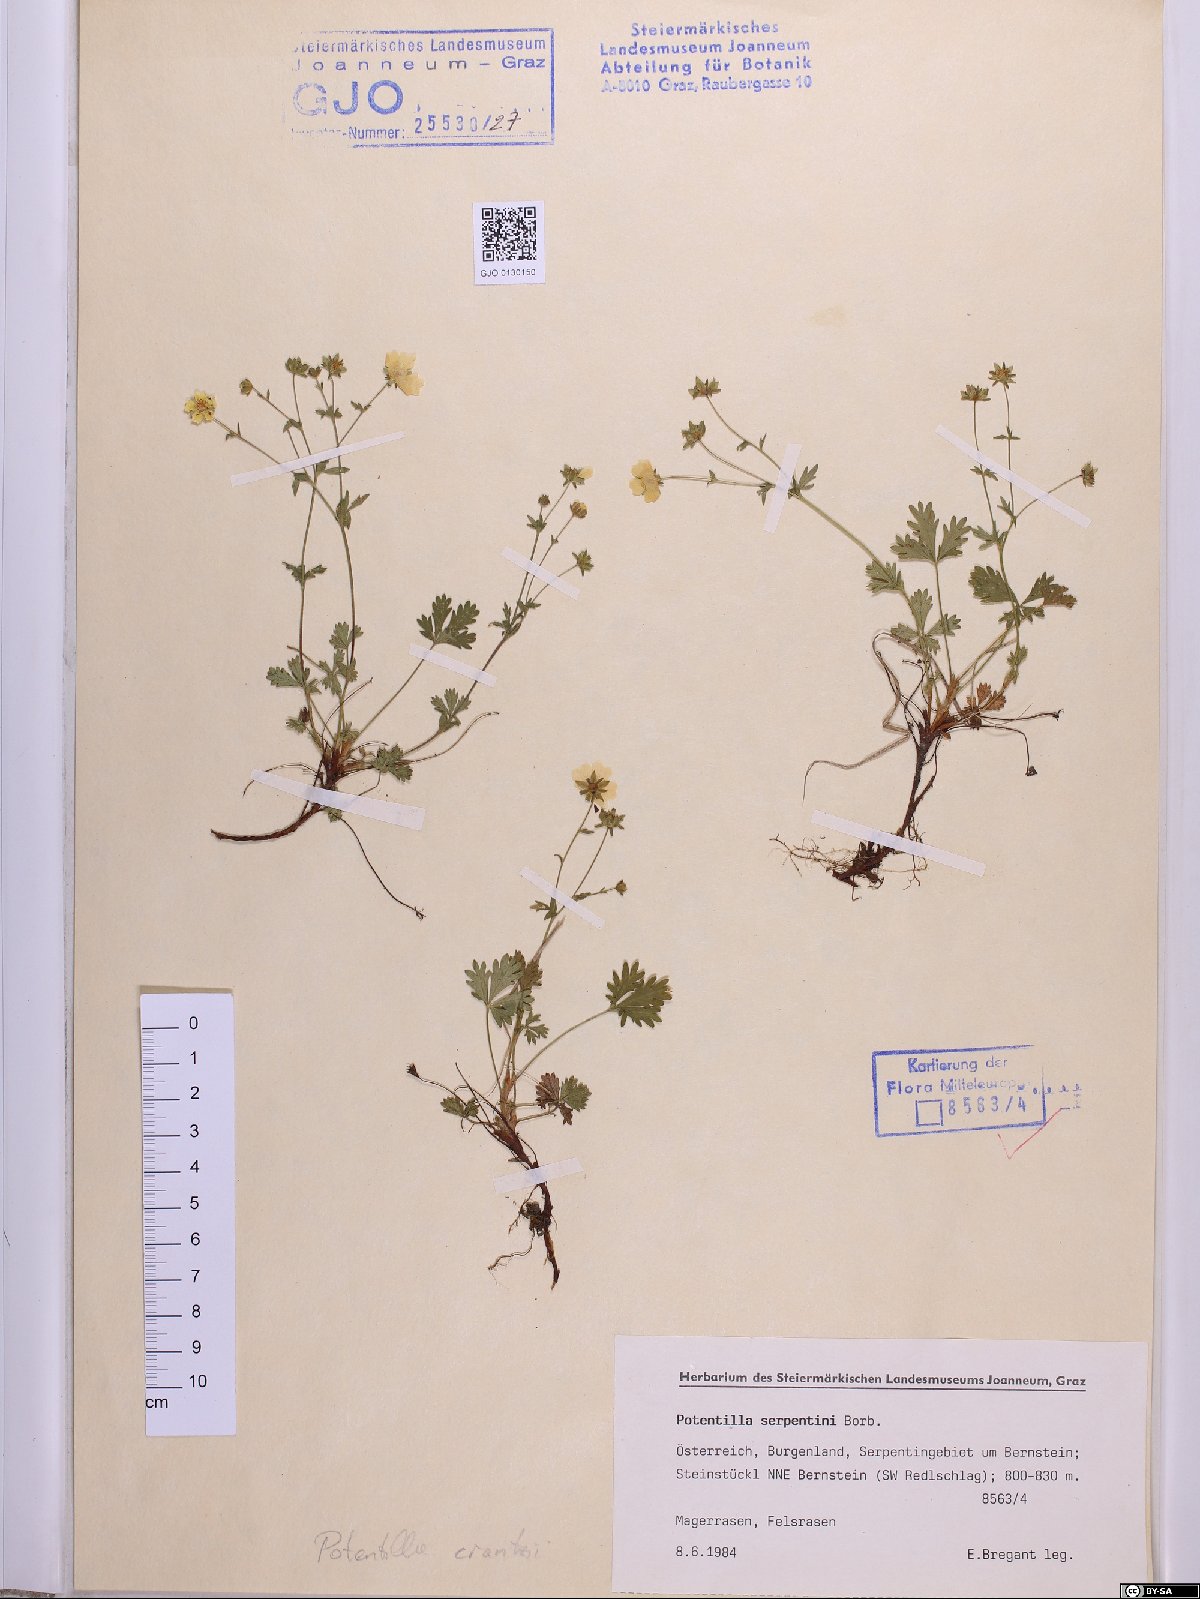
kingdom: Plantae
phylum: Tracheophyta
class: Magnoliopsida
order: Rosales
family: Rosaceae
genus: Potentilla
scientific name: Potentilla crantzii
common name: Alpine cinquefoil
